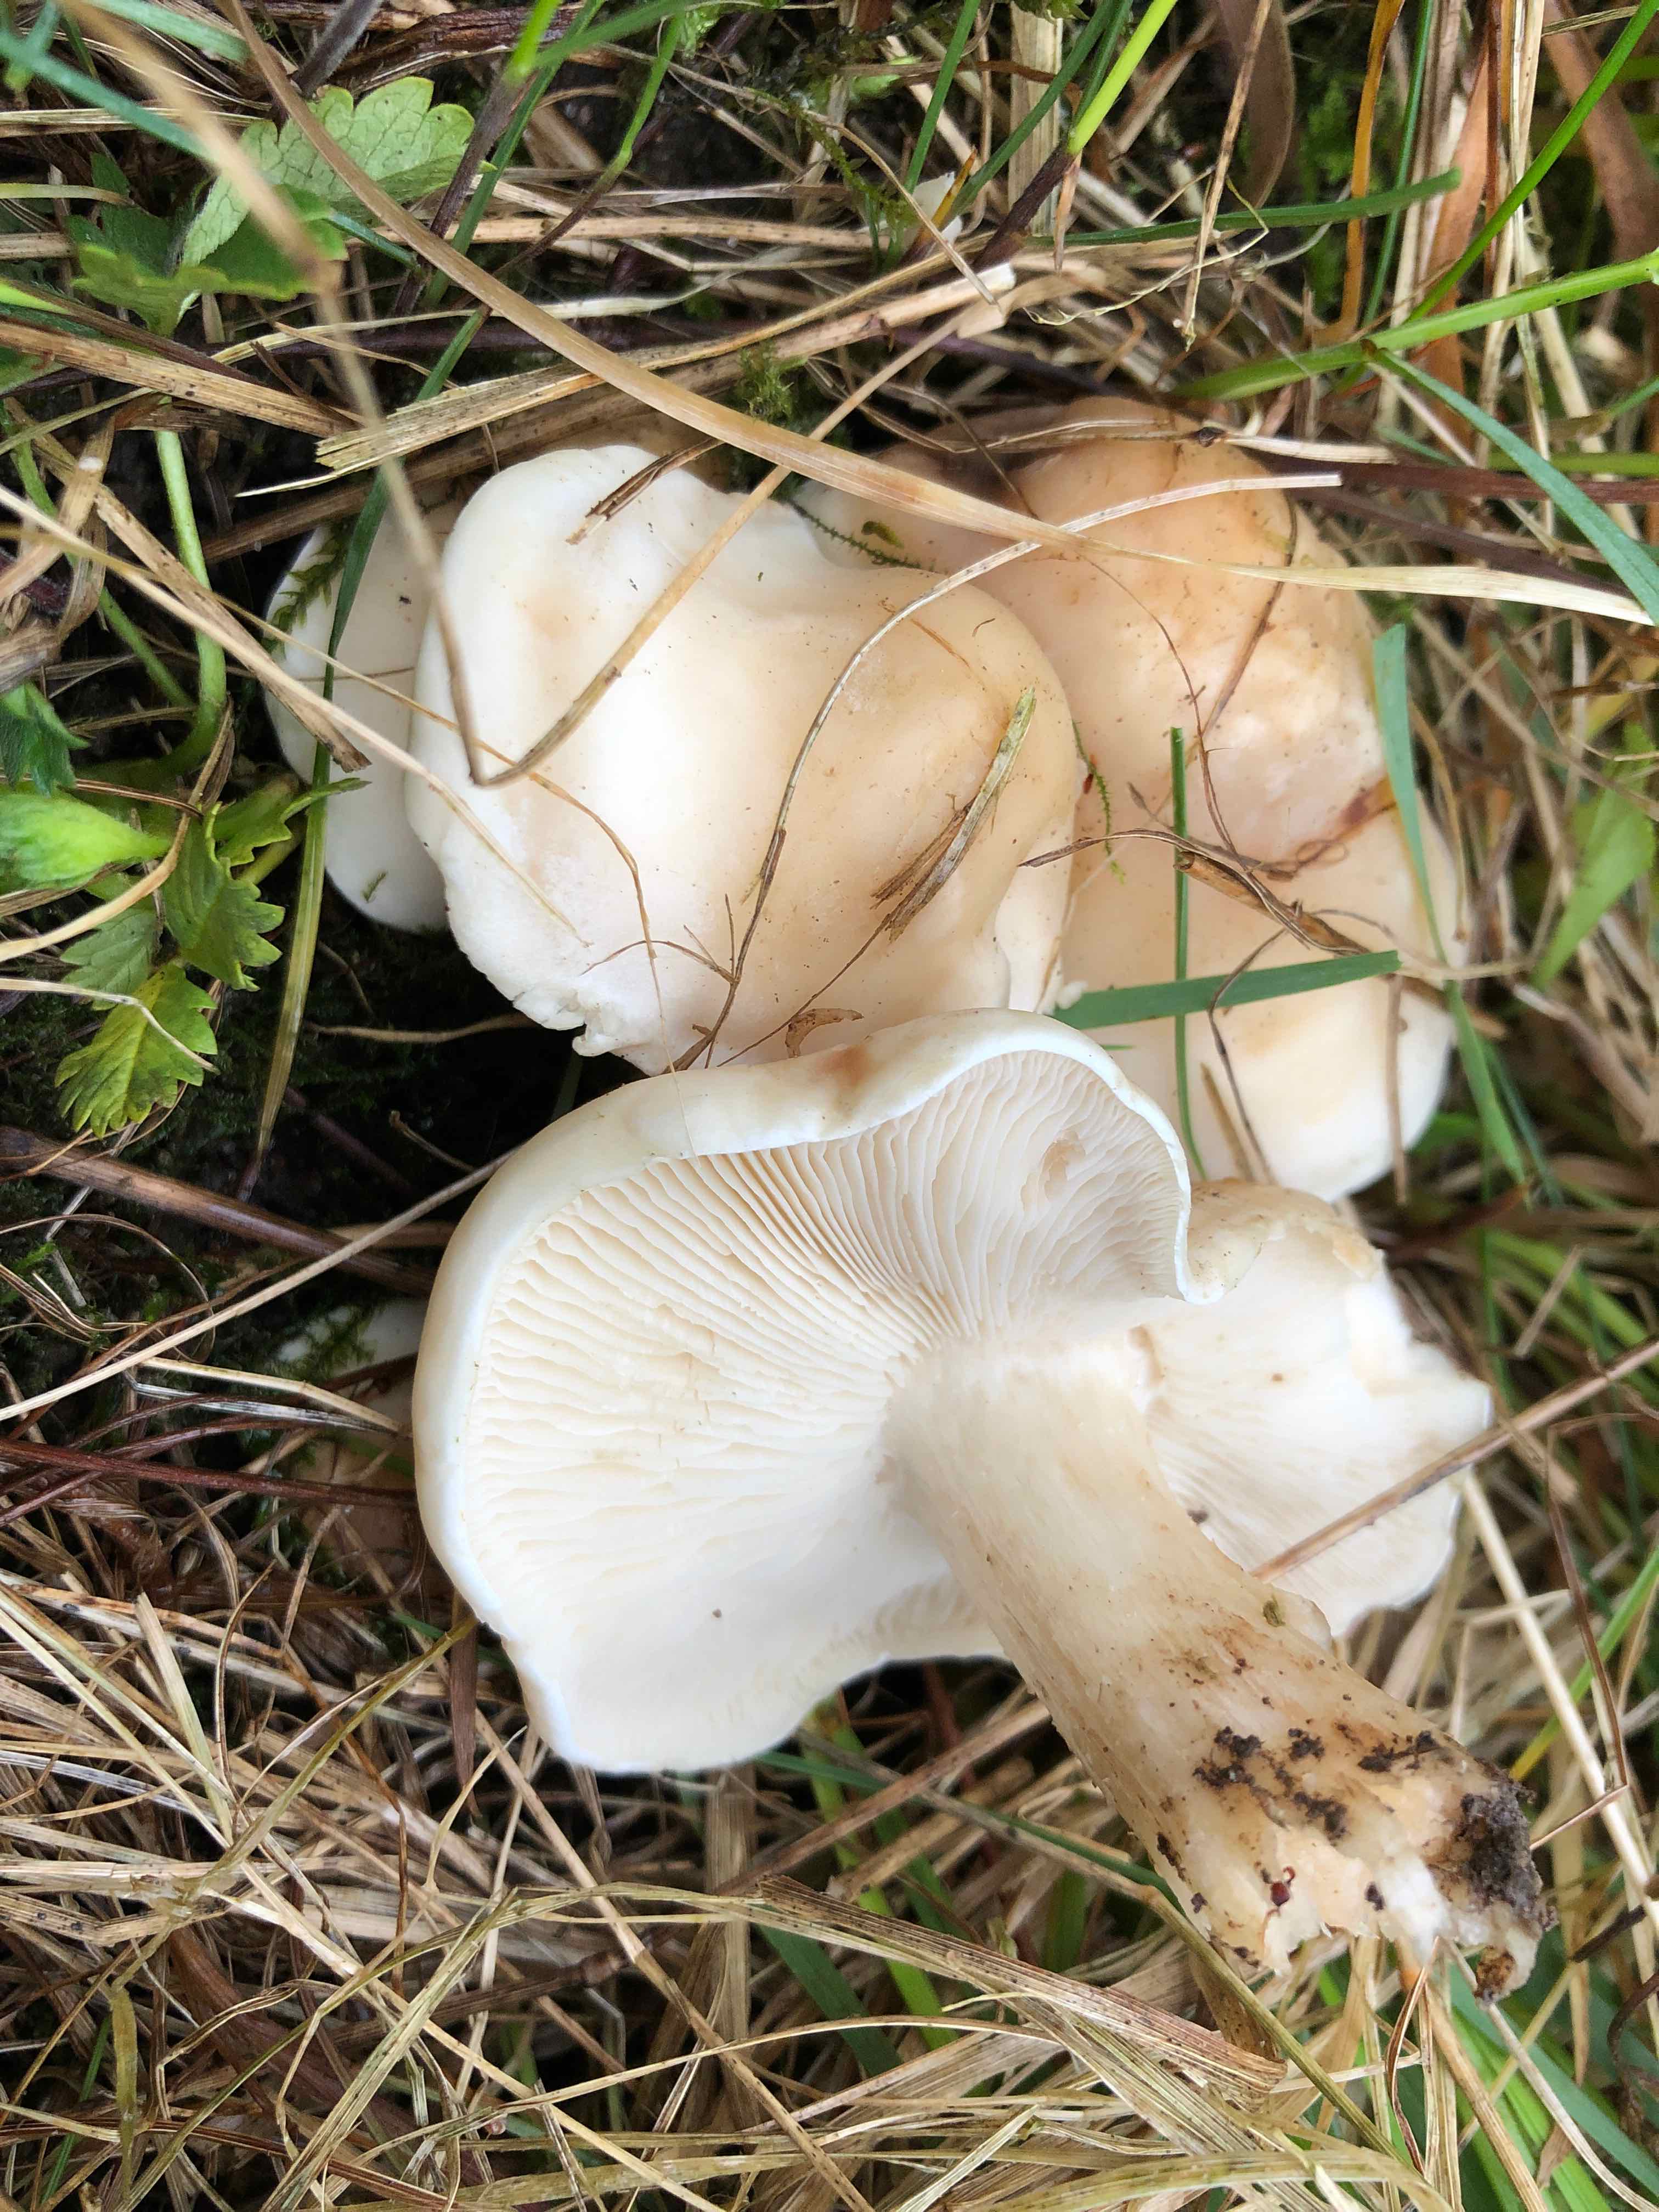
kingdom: Fungi
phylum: Basidiomycota
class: Agaricomycetes
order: Agaricales
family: Lyophyllaceae
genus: Calocybe
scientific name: Calocybe gambosa
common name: vårmusseron
